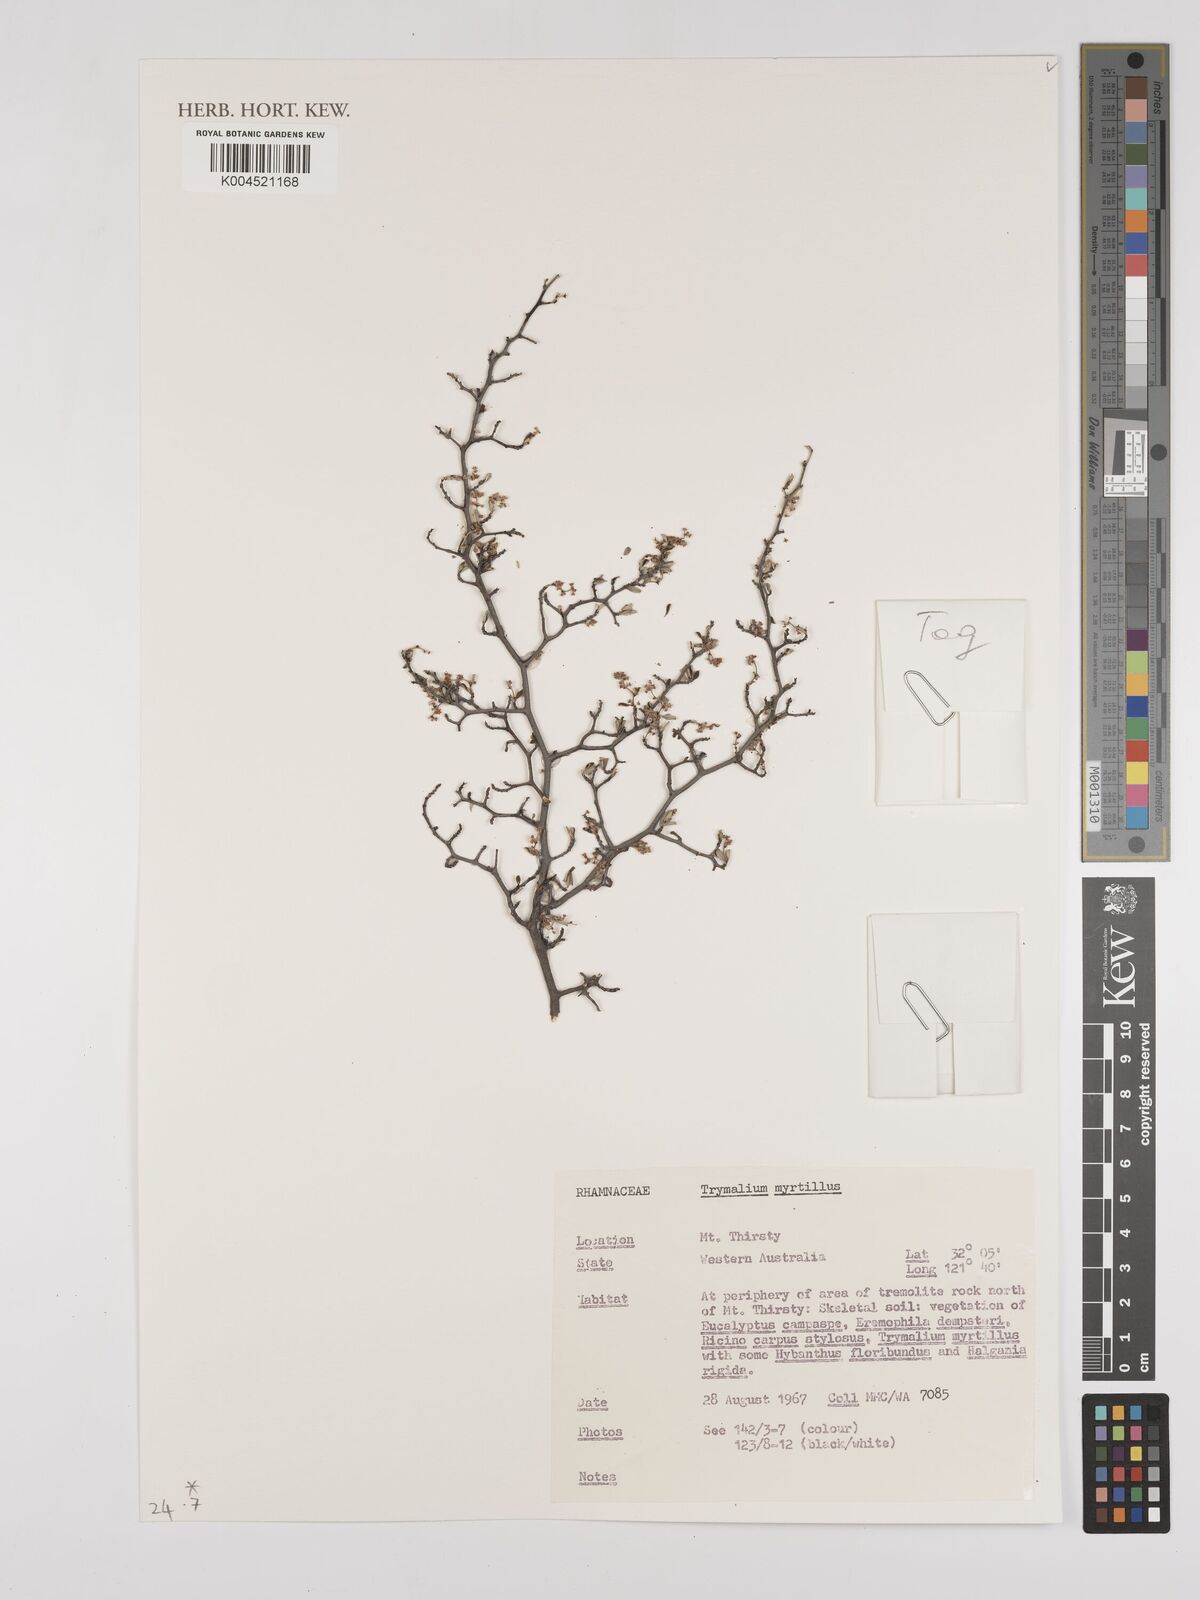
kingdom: Plantae
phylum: Tracheophyta
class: Magnoliopsida
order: Rosales
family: Rhamnaceae
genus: Trymalium
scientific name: Trymalium myrtillus
